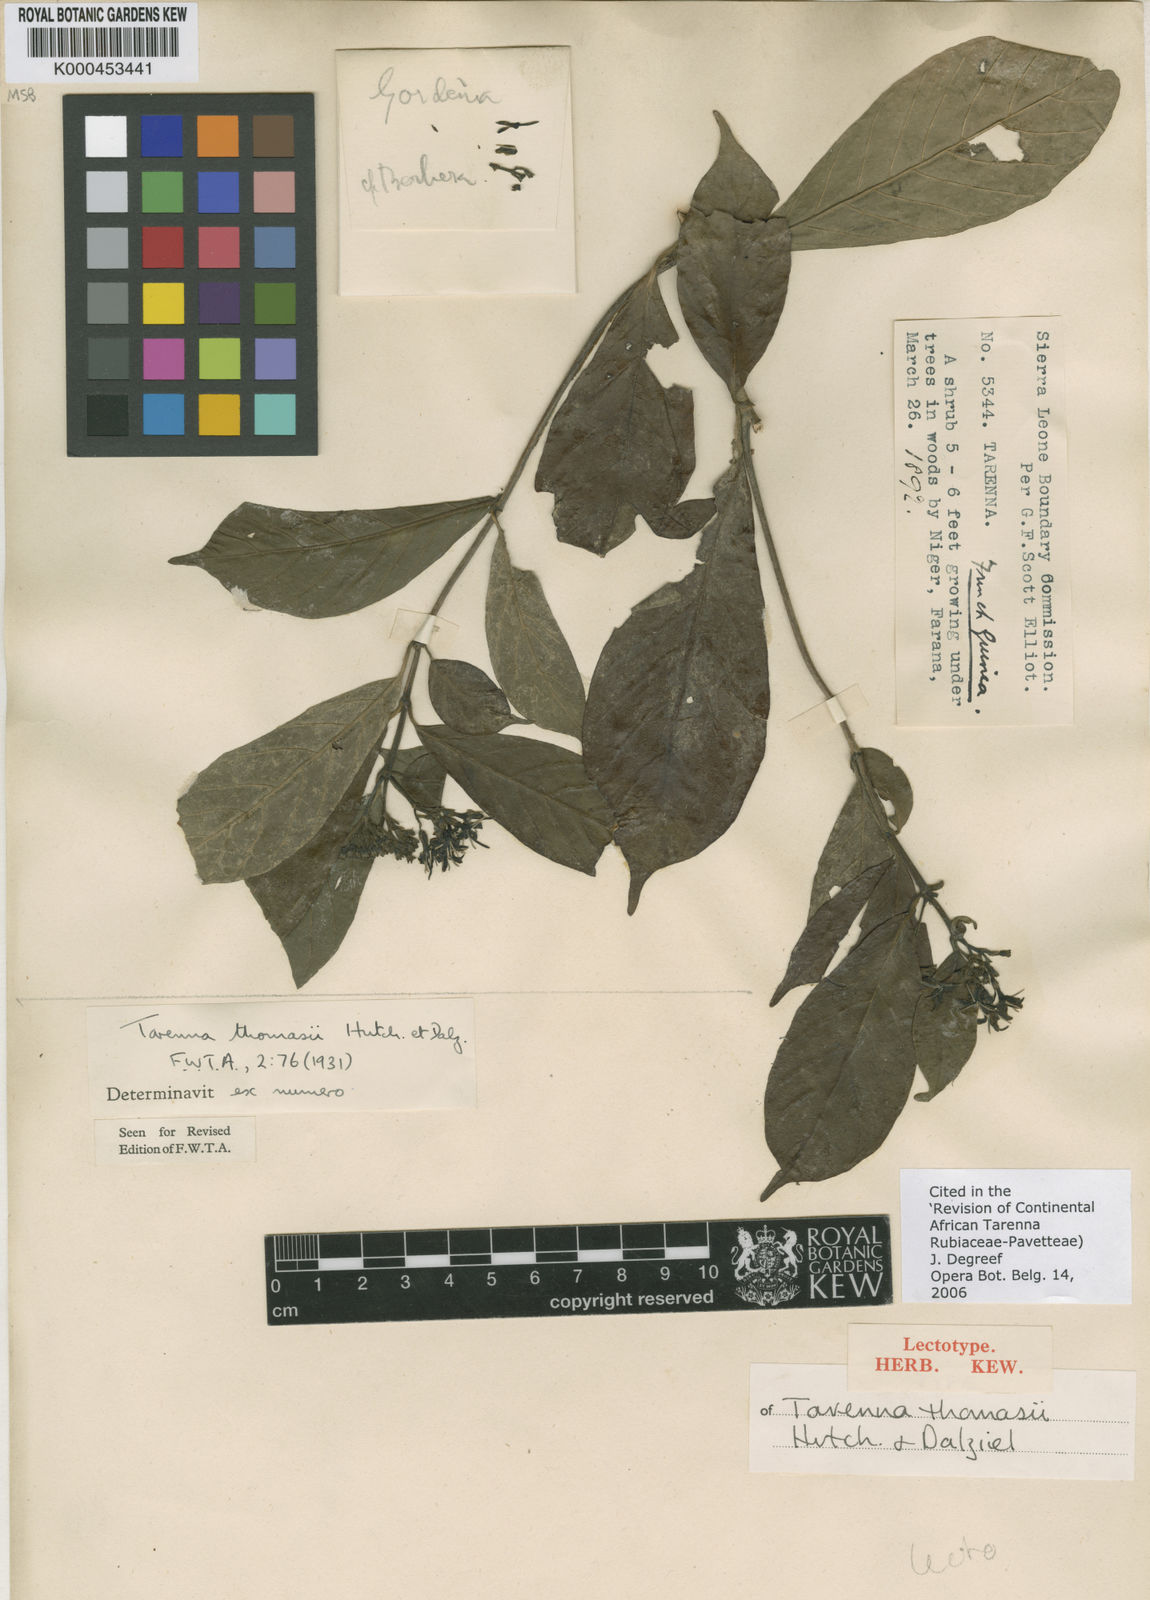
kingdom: Plantae
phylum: Tracheophyta
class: Magnoliopsida
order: Gentianales
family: Rubiaceae
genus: Tarenna
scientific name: Tarenna thomasii
